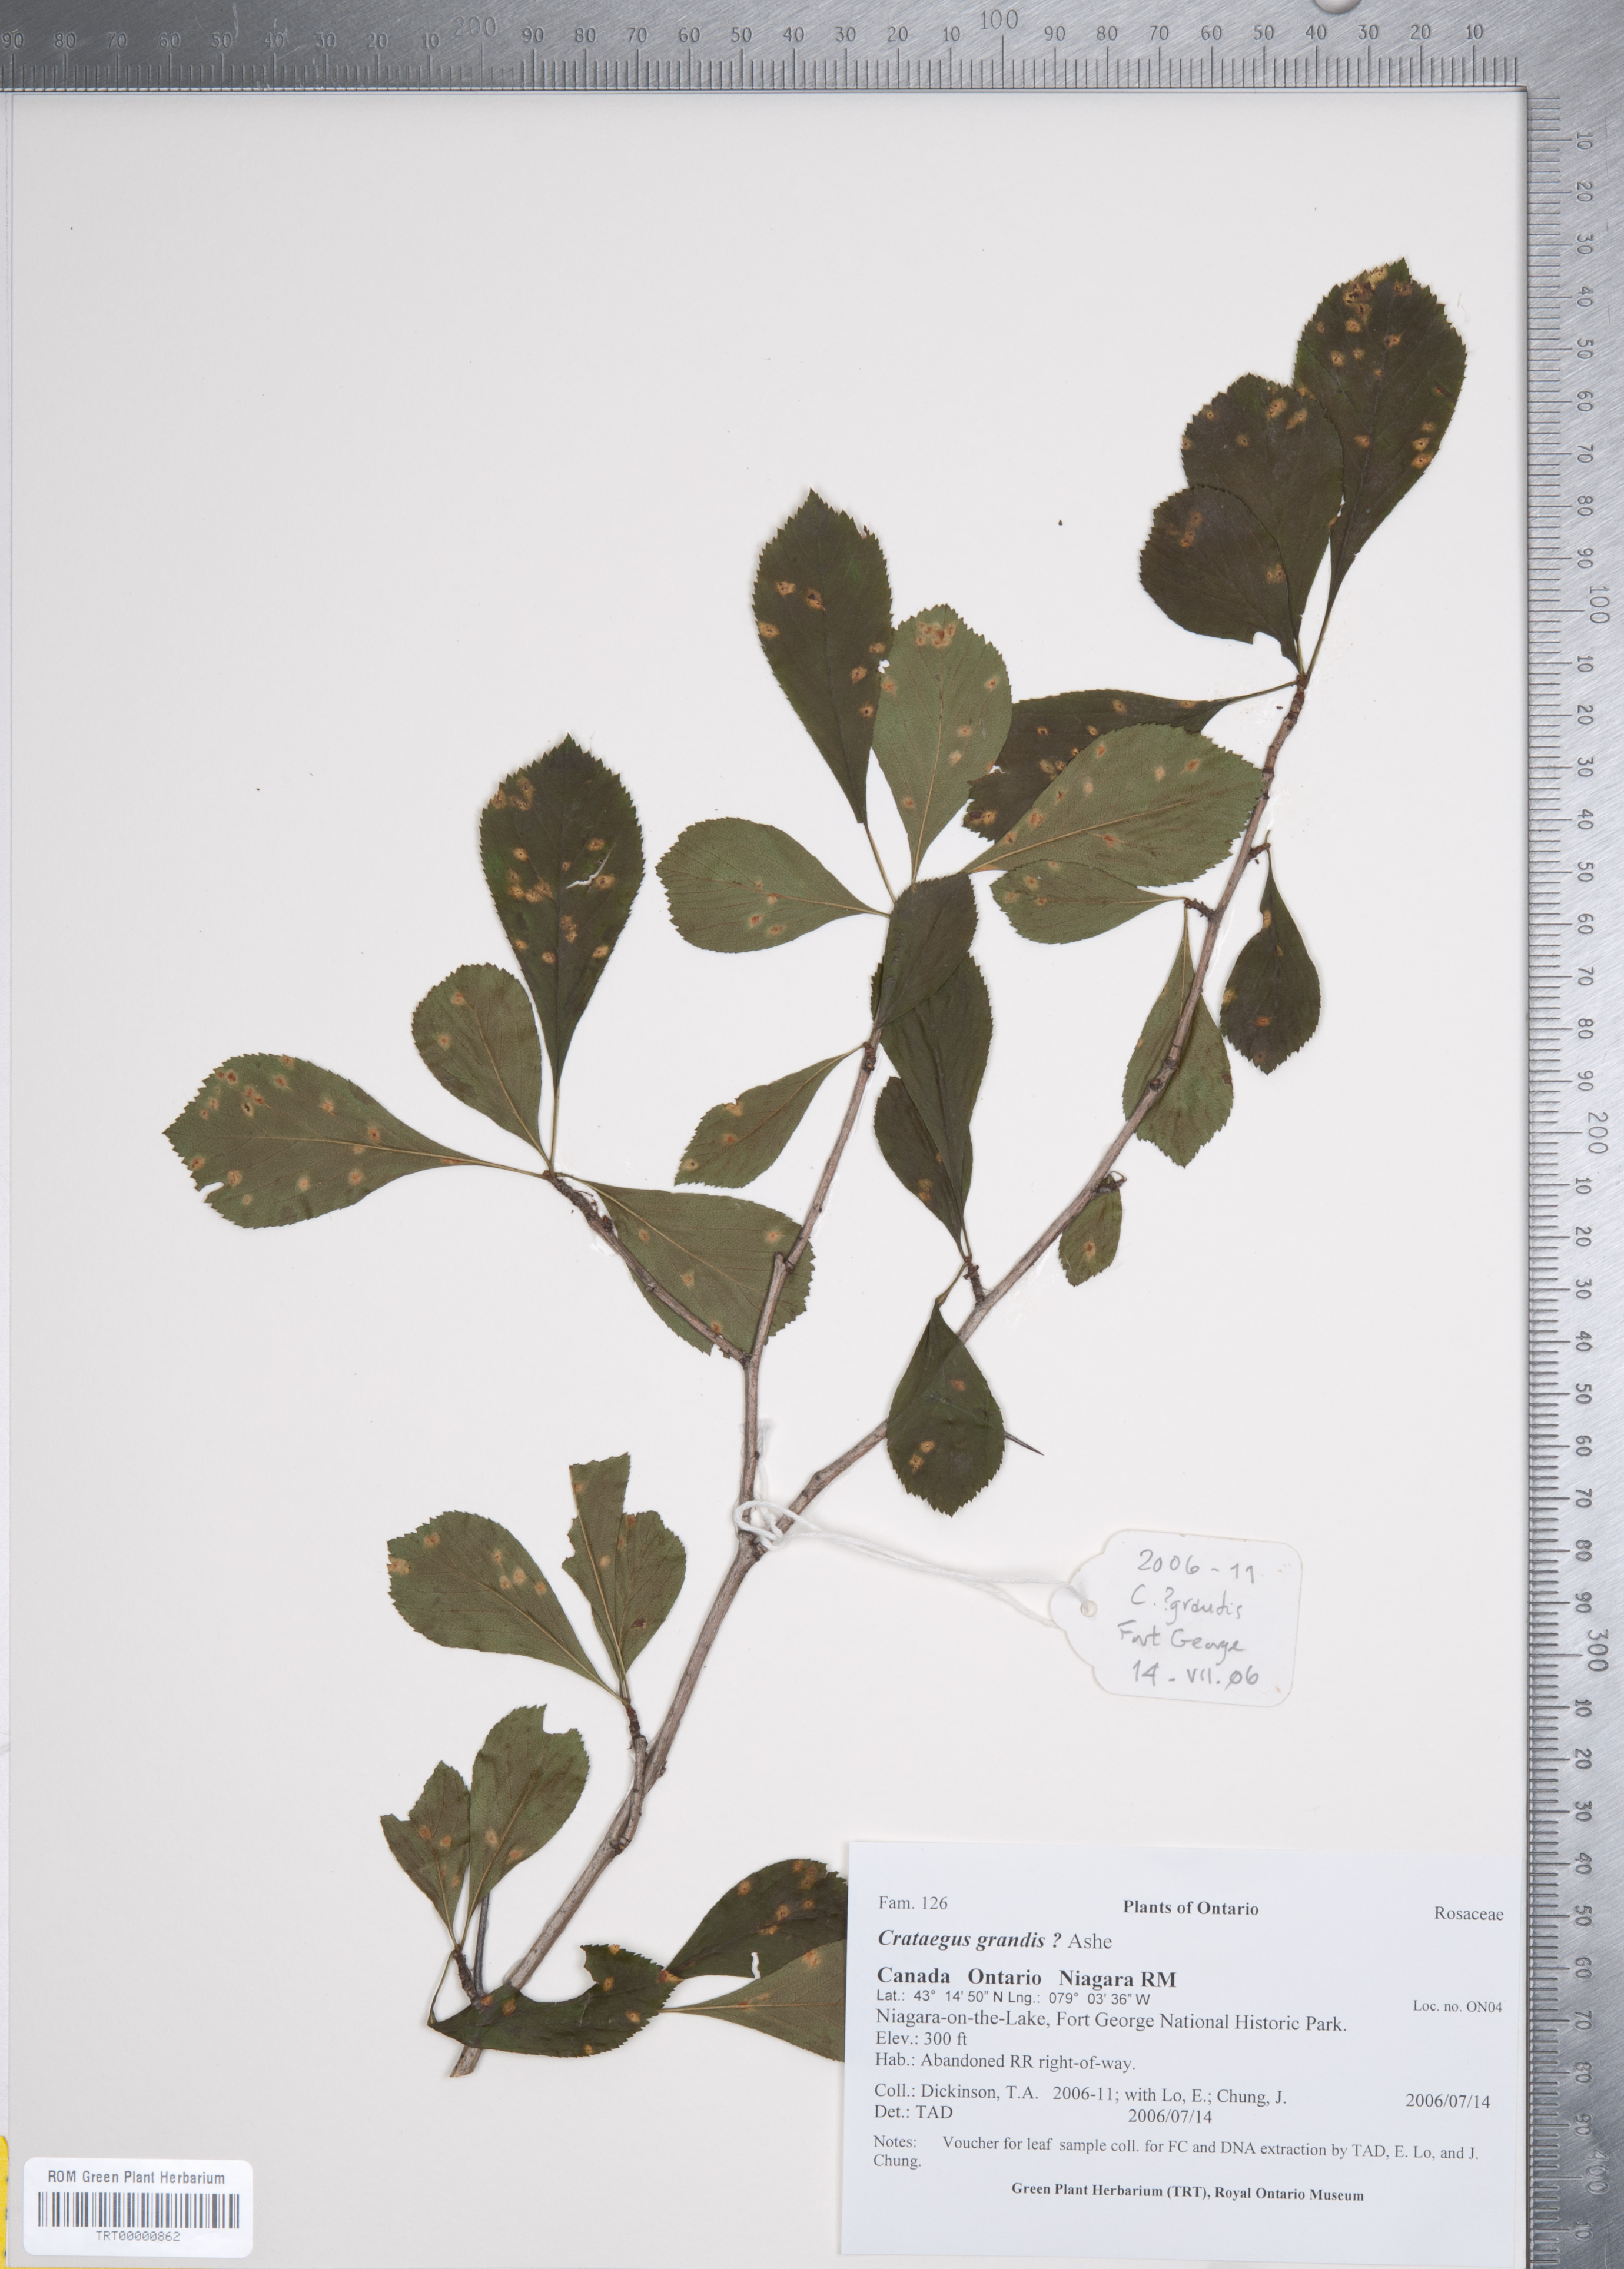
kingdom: Plantae
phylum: Tracheophyta
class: Magnoliopsida
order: Rosales
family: Rosaceae
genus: Crataegus
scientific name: Crataegus disperma
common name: Spreading hawthorn
